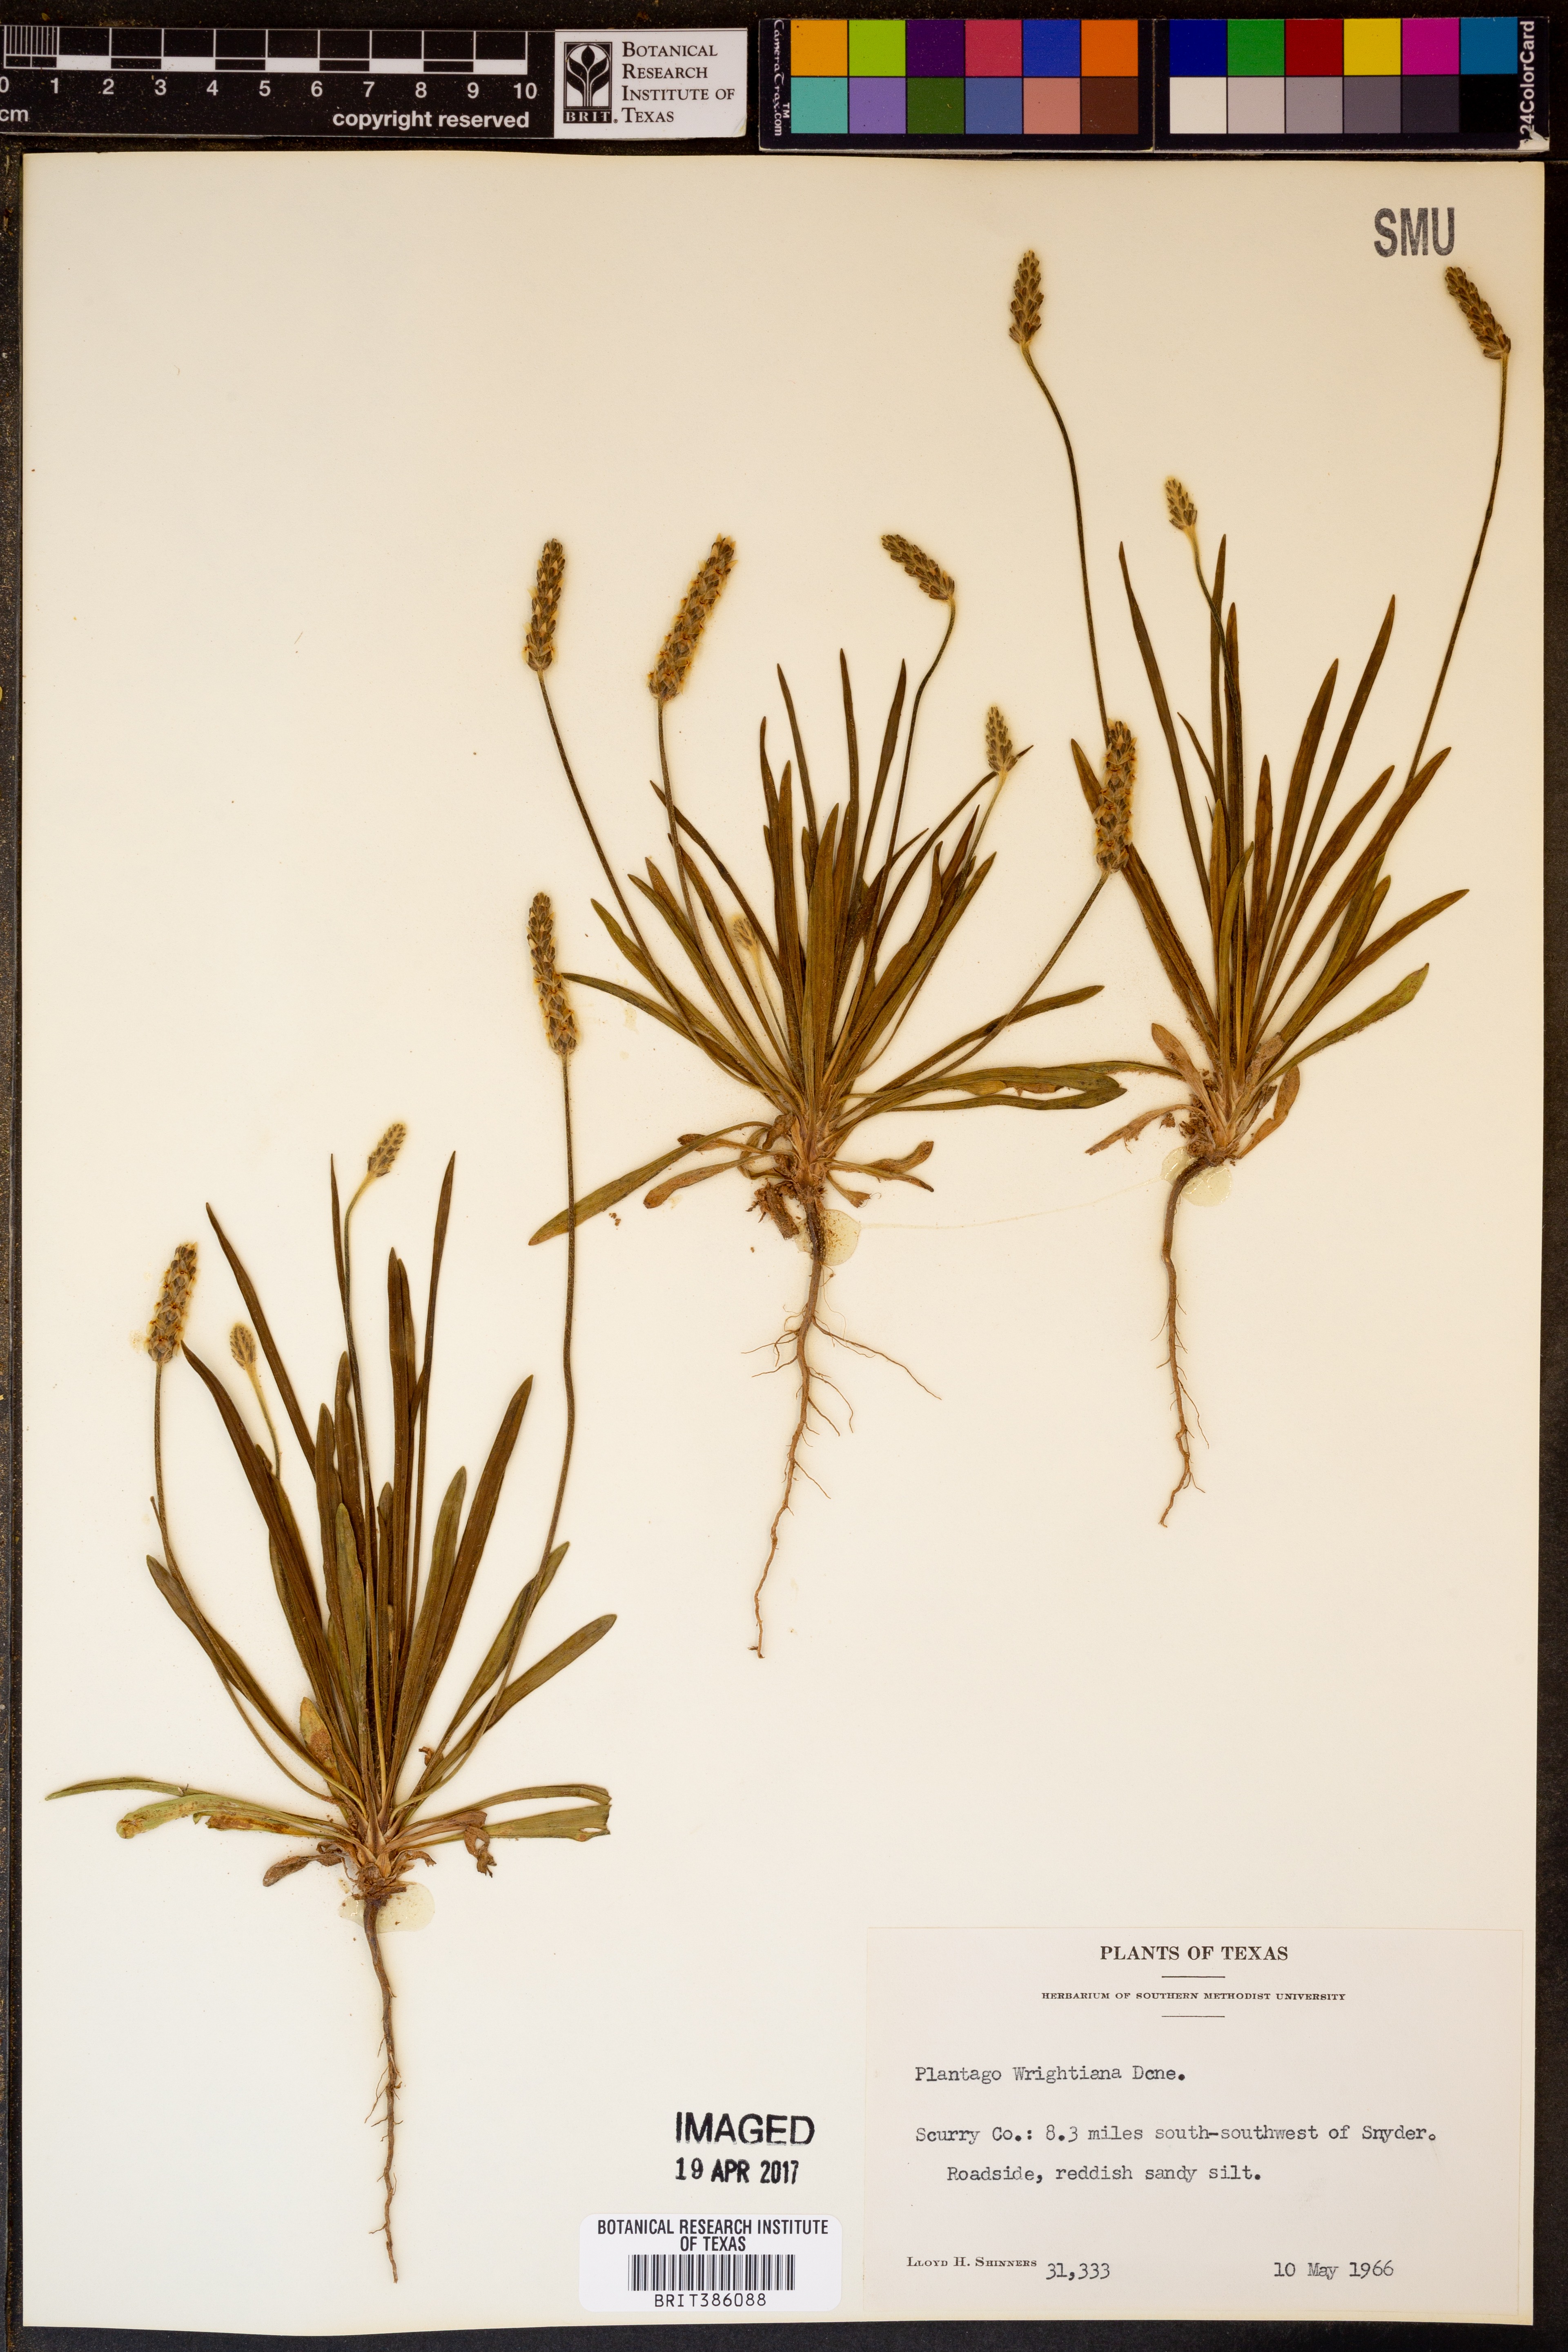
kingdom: Plantae
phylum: Tracheophyta
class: Magnoliopsida
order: Lamiales
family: Plantaginaceae
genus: Plantago
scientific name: Plantago wrightiana
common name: Wright's plantain
